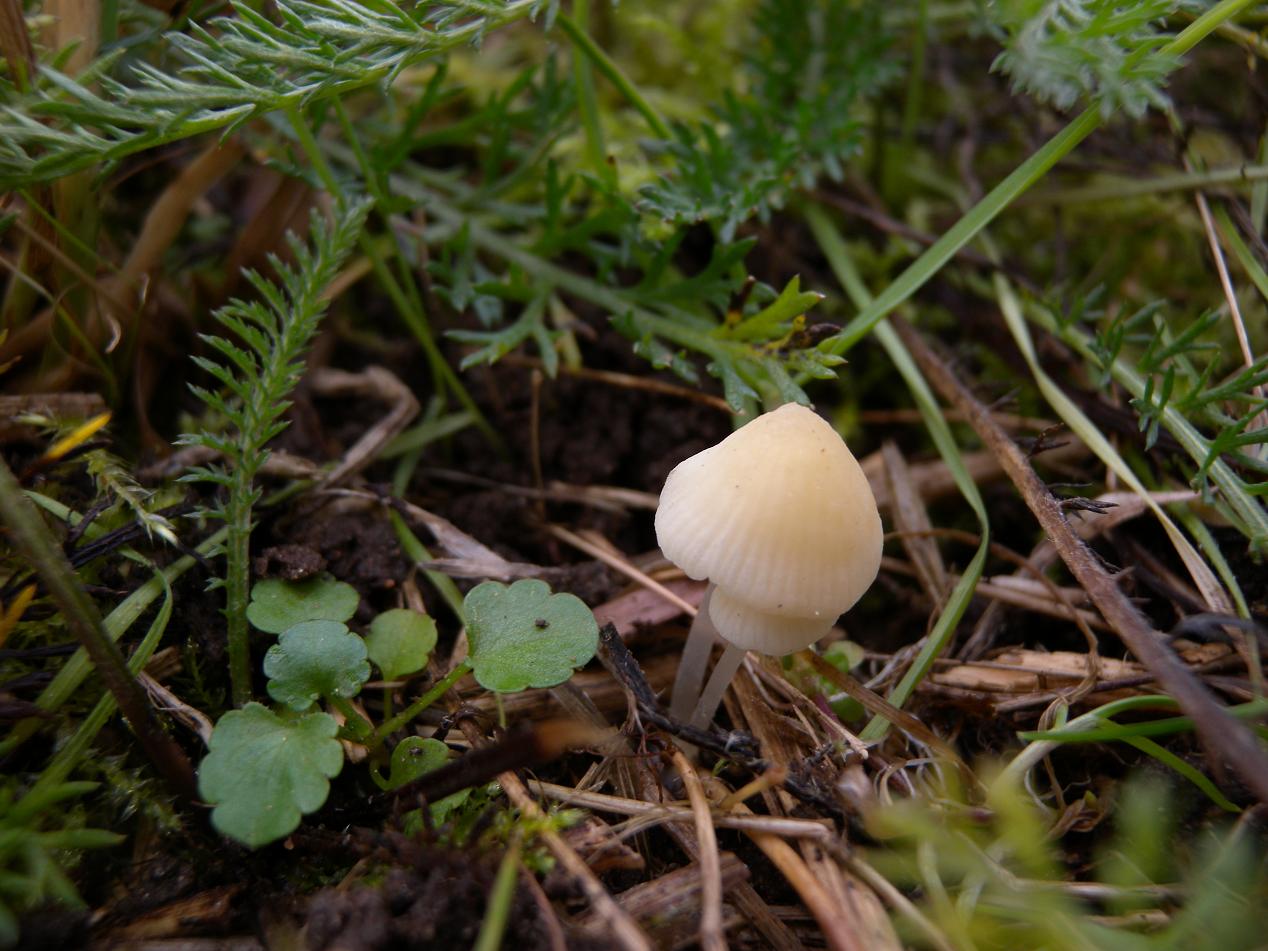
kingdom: Fungi
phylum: Basidiomycota
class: Agaricomycetes
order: Agaricales
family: Mycenaceae
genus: Atheniella
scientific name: Atheniella flavoalba
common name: gulhvid huesvamp
